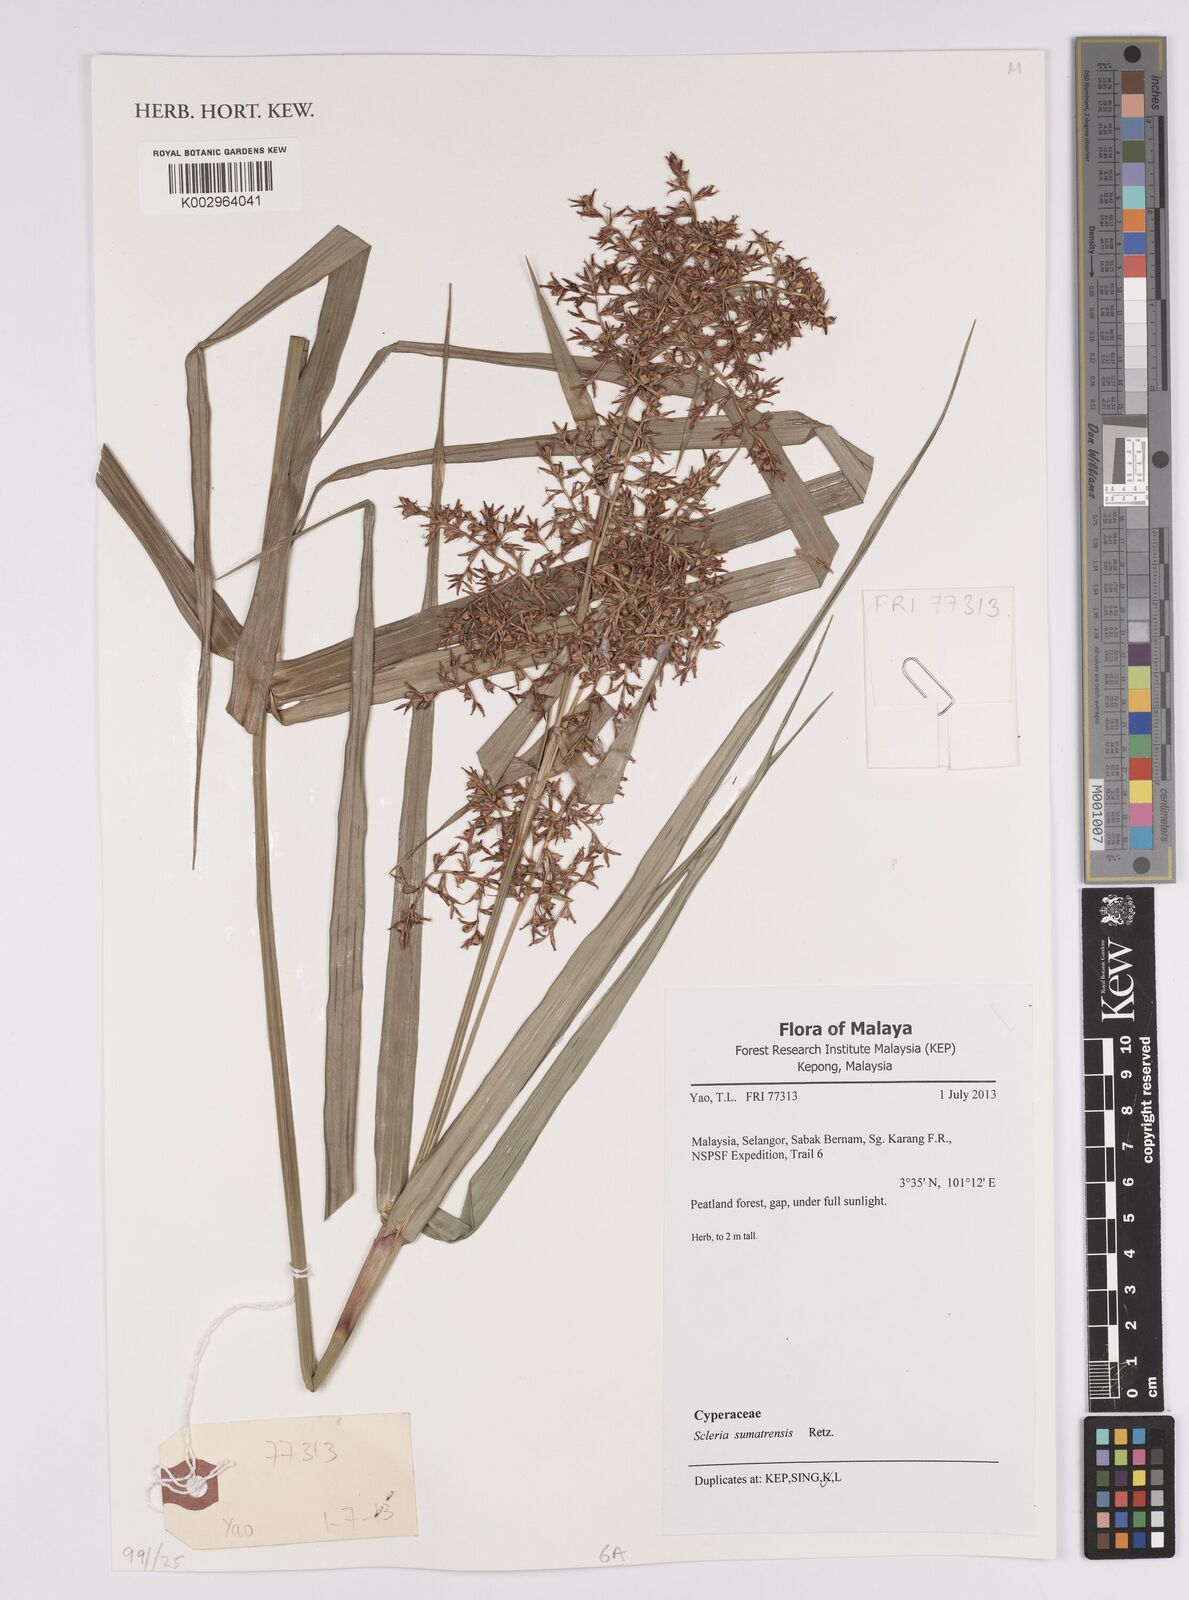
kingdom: Plantae
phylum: Tracheophyta
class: Liliopsida
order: Poales
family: Cyperaceae
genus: Scleria
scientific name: Scleria sumatrensis
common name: Sumatran scleria
